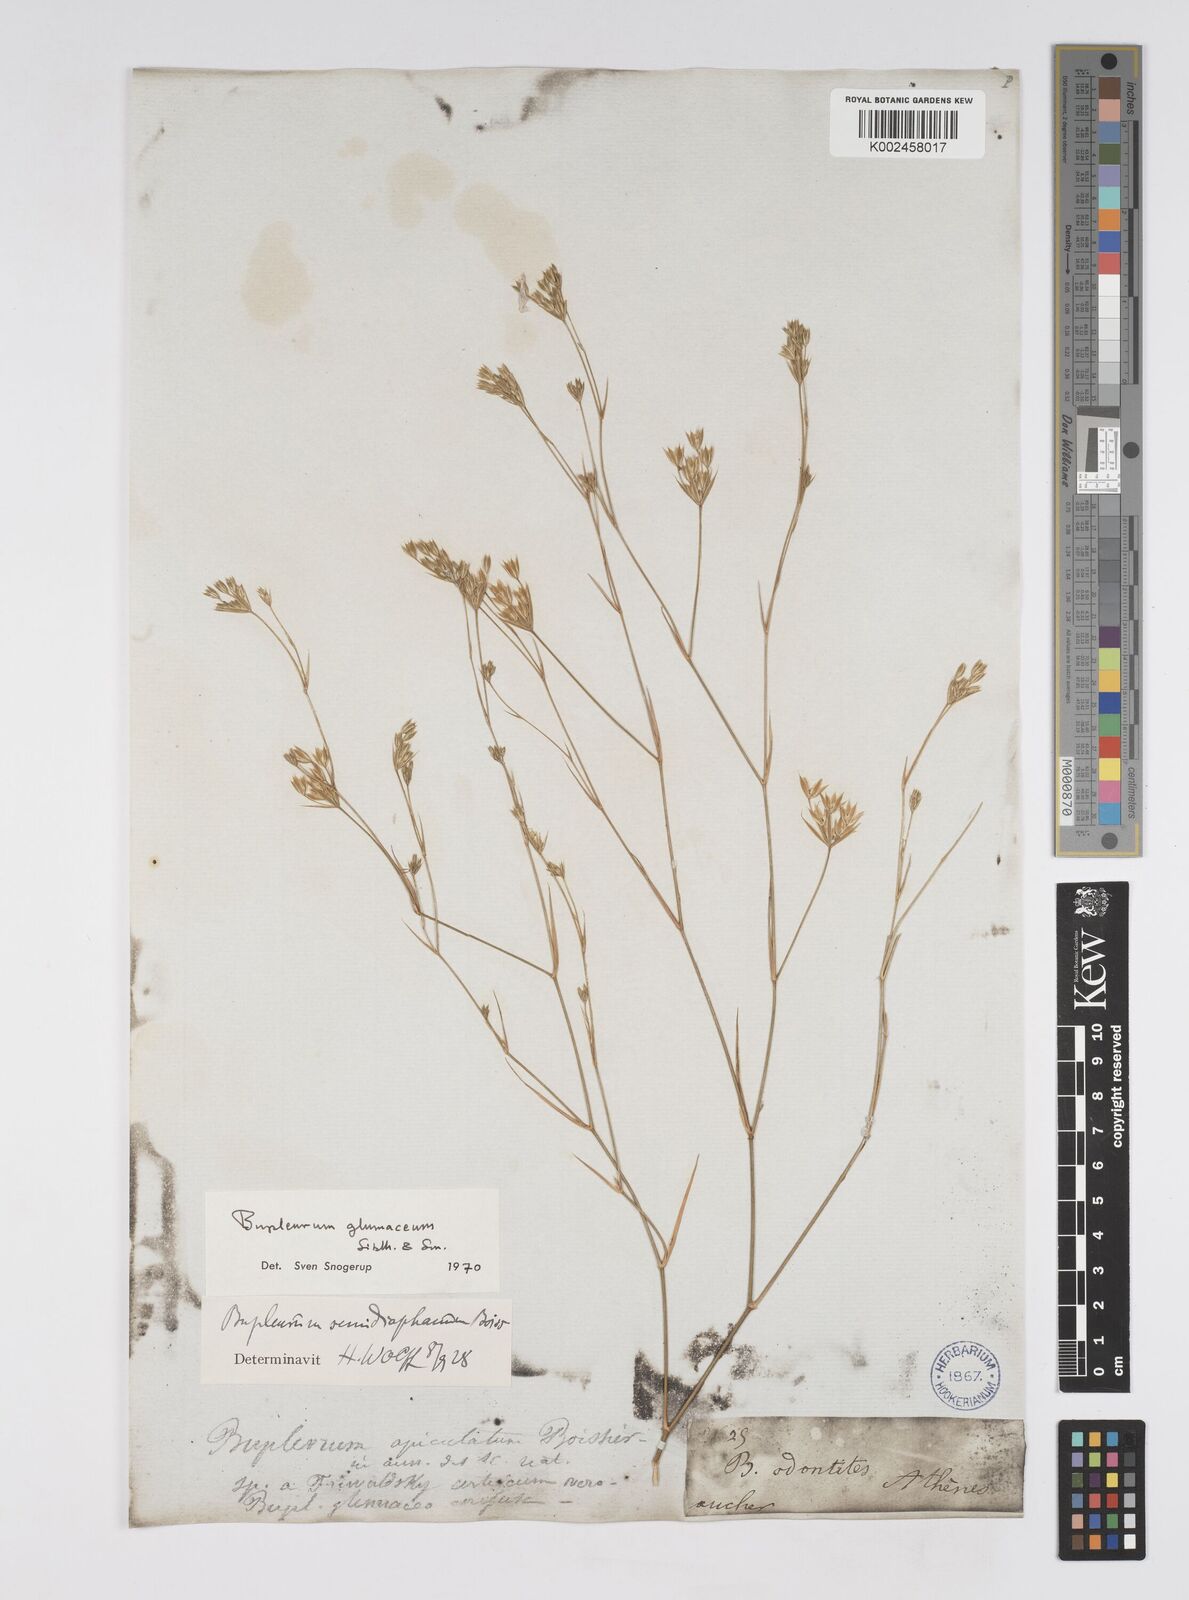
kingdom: Plantae
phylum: Tracheophyta
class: Magnoliopsida
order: Apiales
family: Apiaceae
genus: Bupleurum
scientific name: Bupleurum glumaceum
